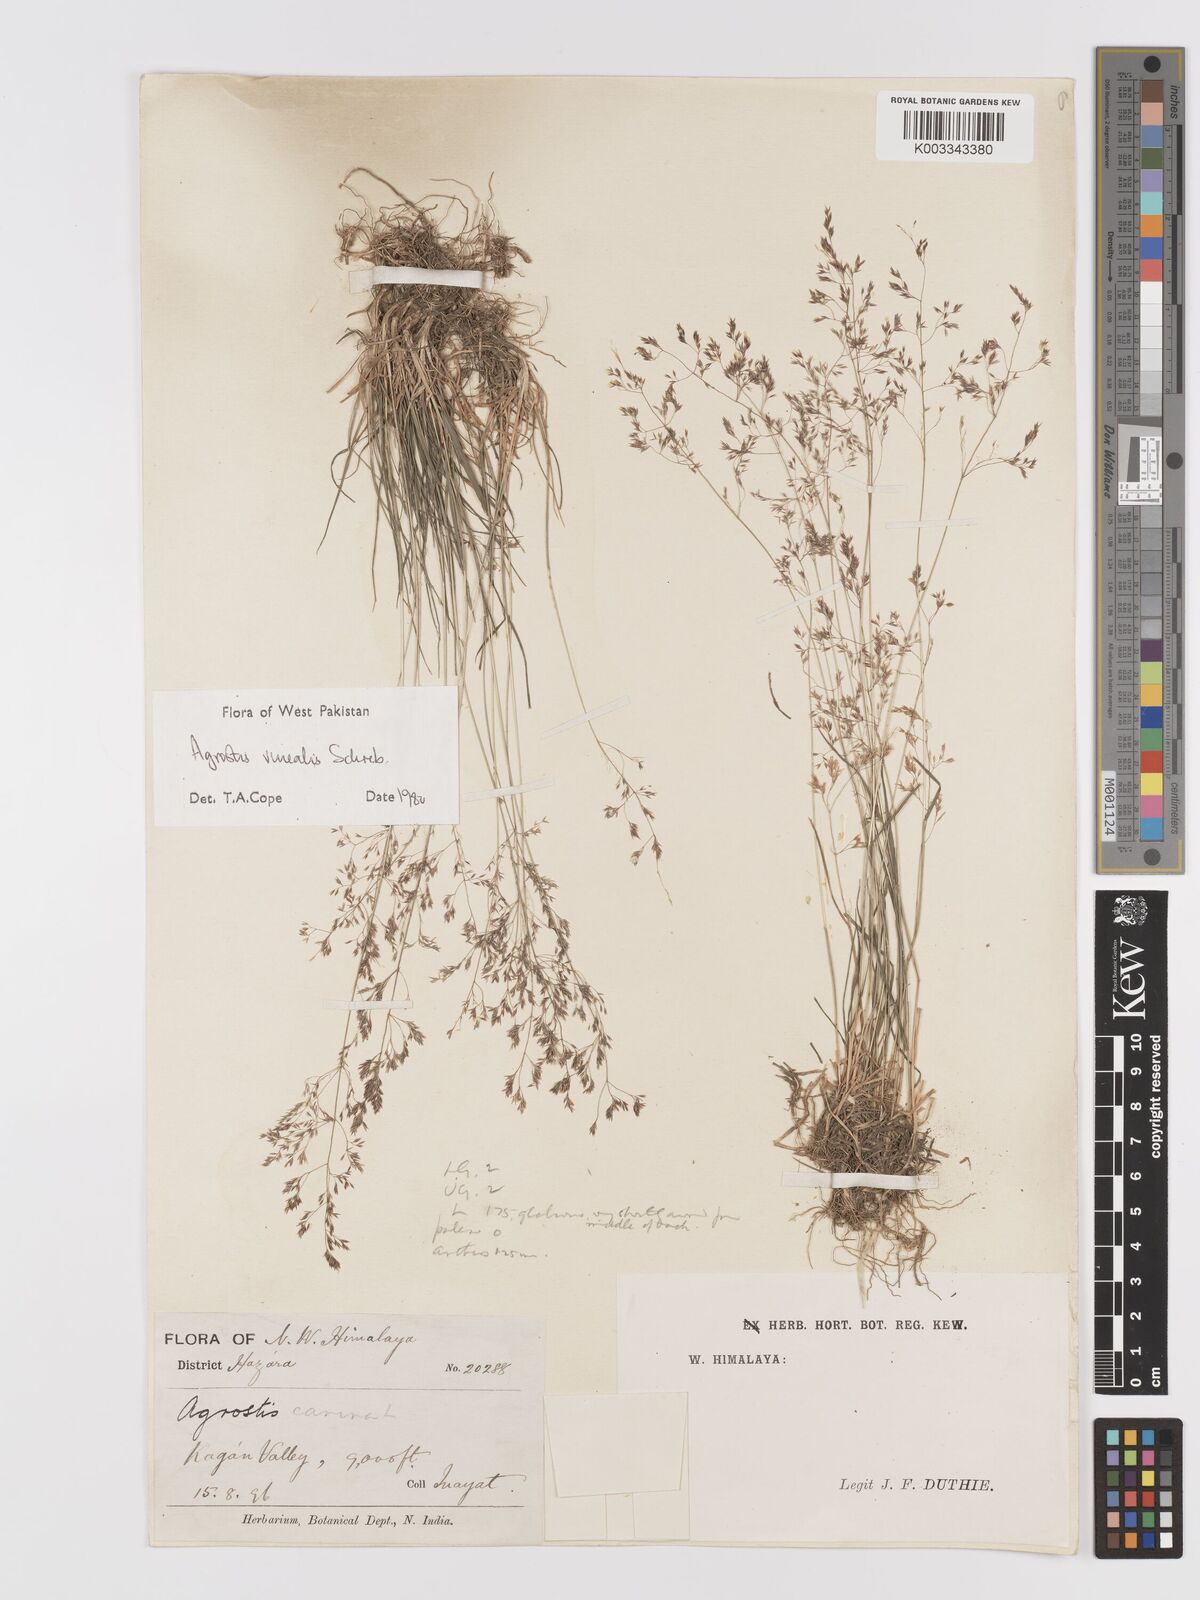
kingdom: Plantae
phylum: Tracheophyta
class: Liliopsida
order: Poales
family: Poaceae
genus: Agrostis
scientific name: Agrostis vinealis
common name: Brown bent
